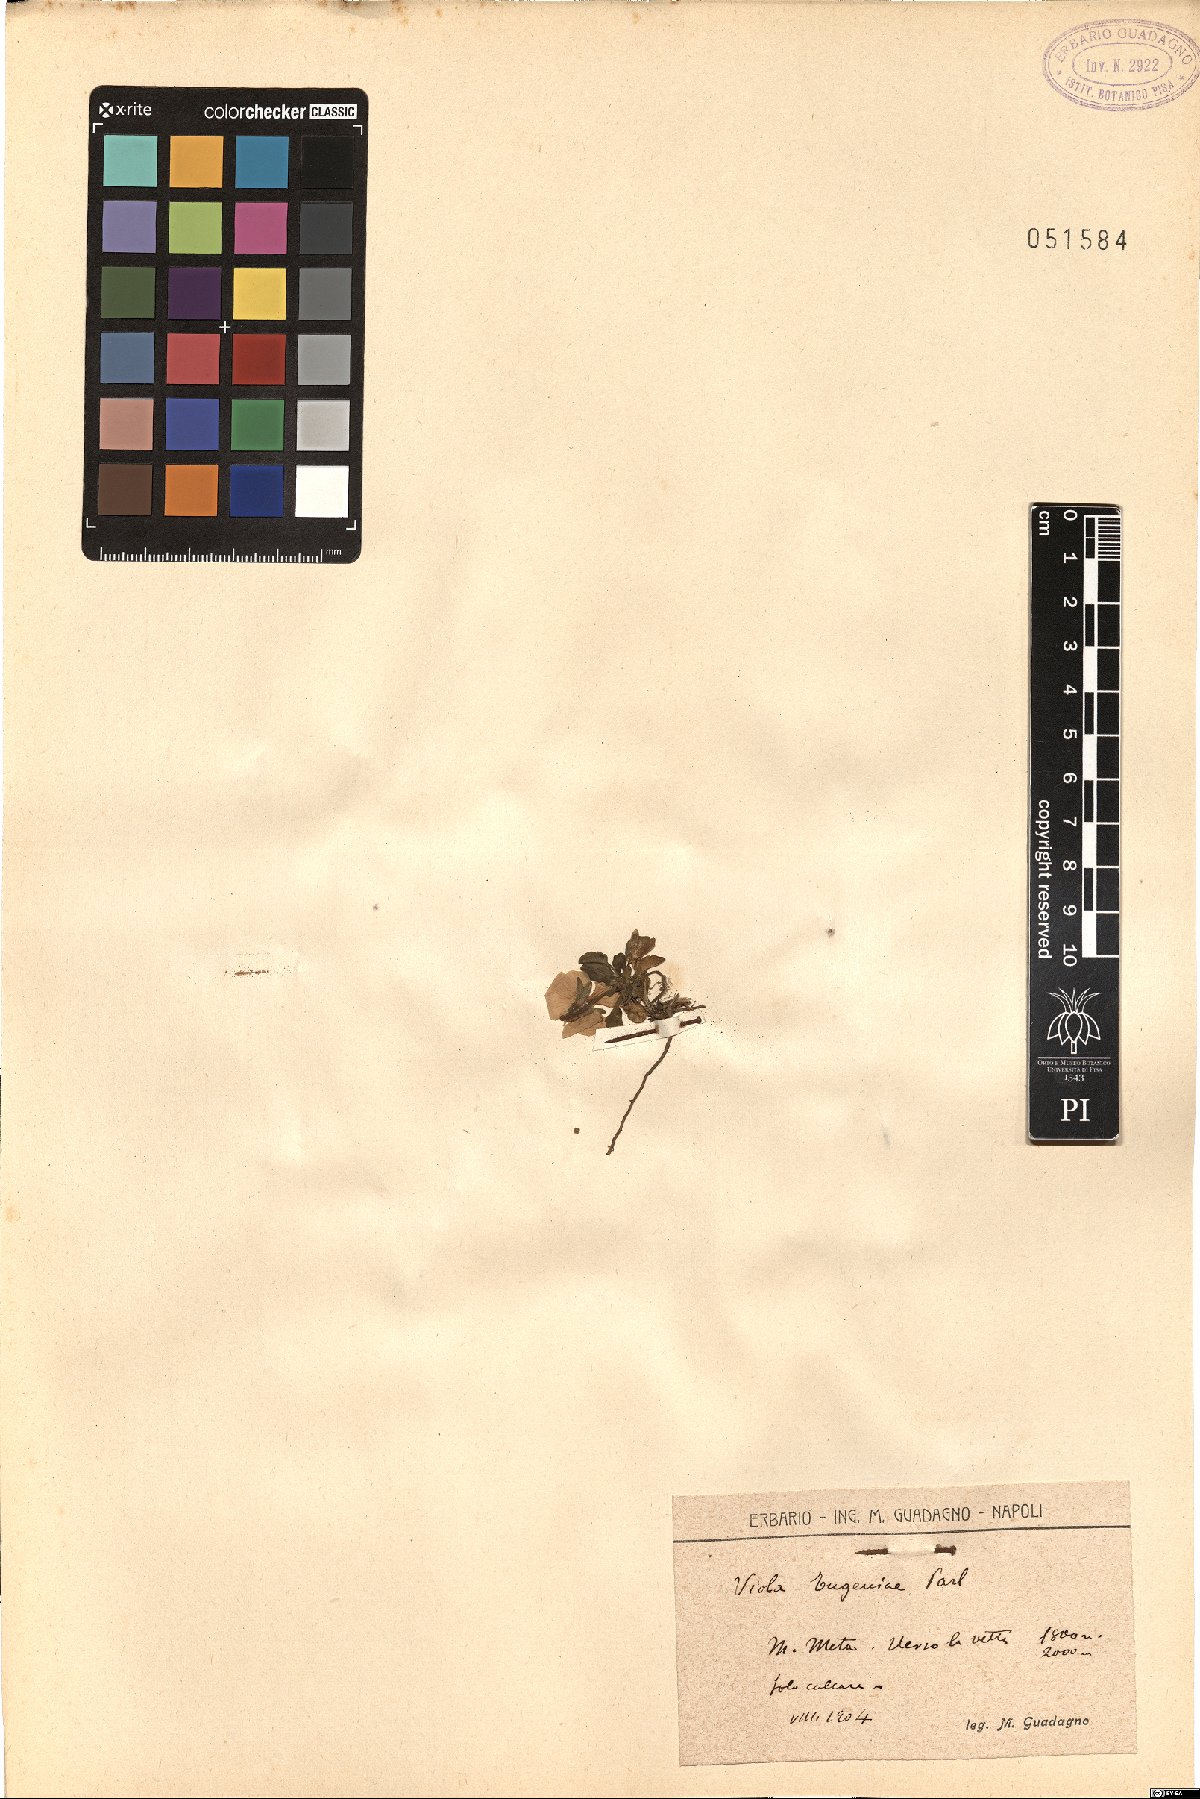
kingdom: Plantae
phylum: Tracheophyta
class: Magnoliopsida
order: Malpighiales
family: Violaceae
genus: Viola
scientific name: Viola eugeniae
